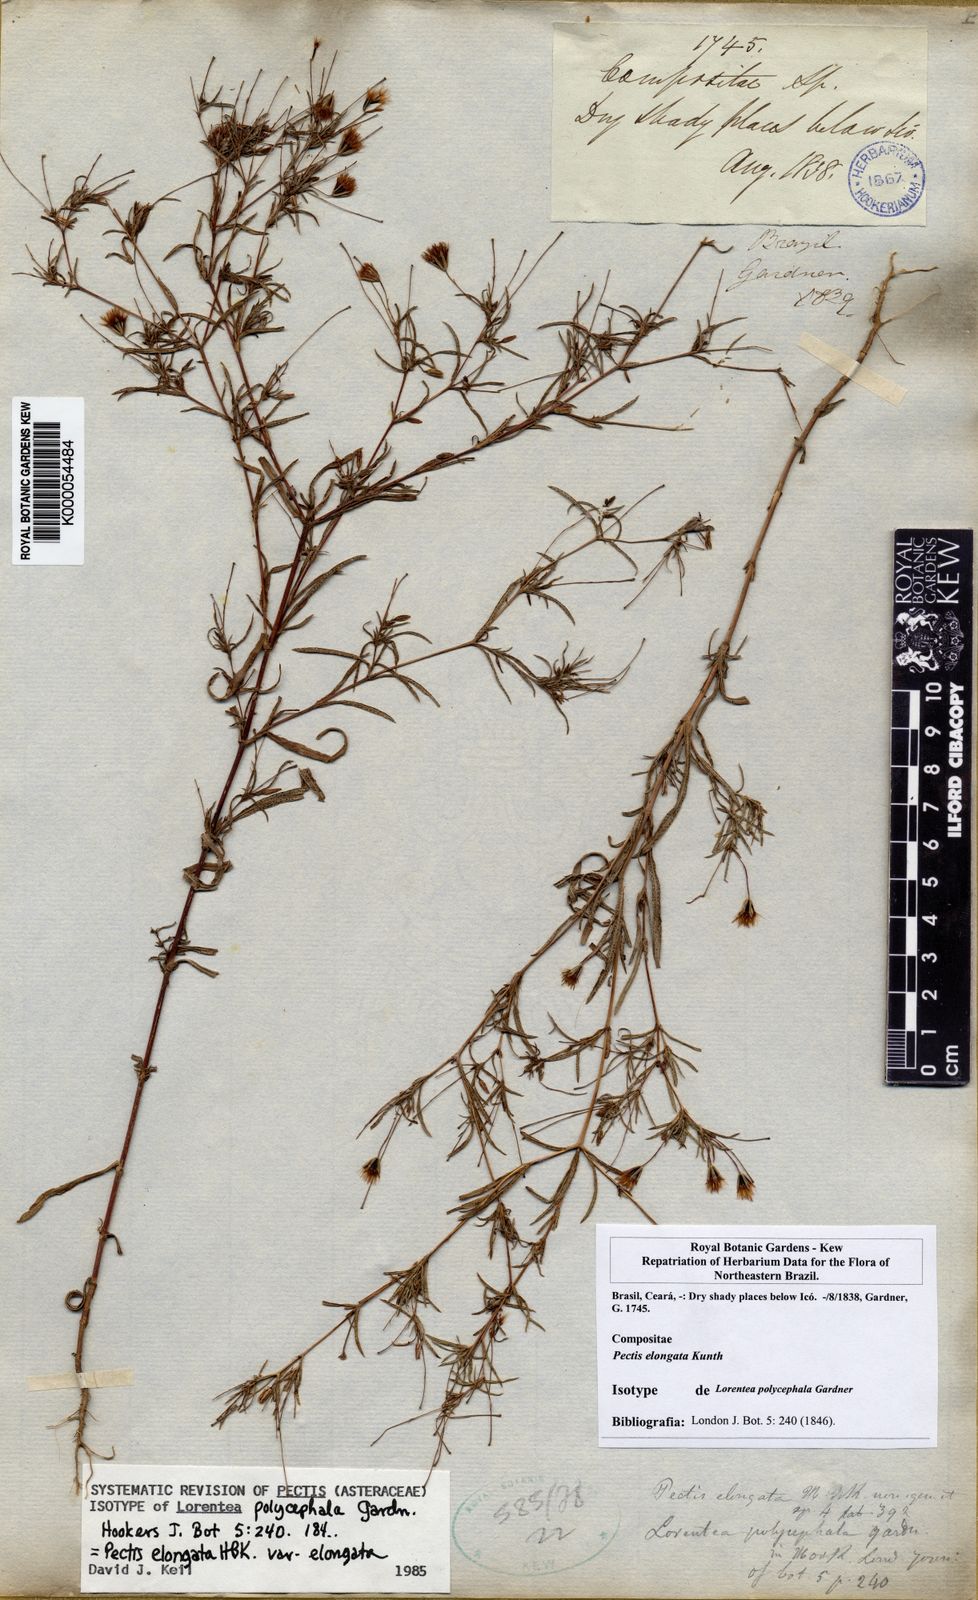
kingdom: Plantae
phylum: Tracheophyta
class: Magnoliopsida
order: Asterales
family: Asteraceae
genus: Pectis
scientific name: Pectis elongata
